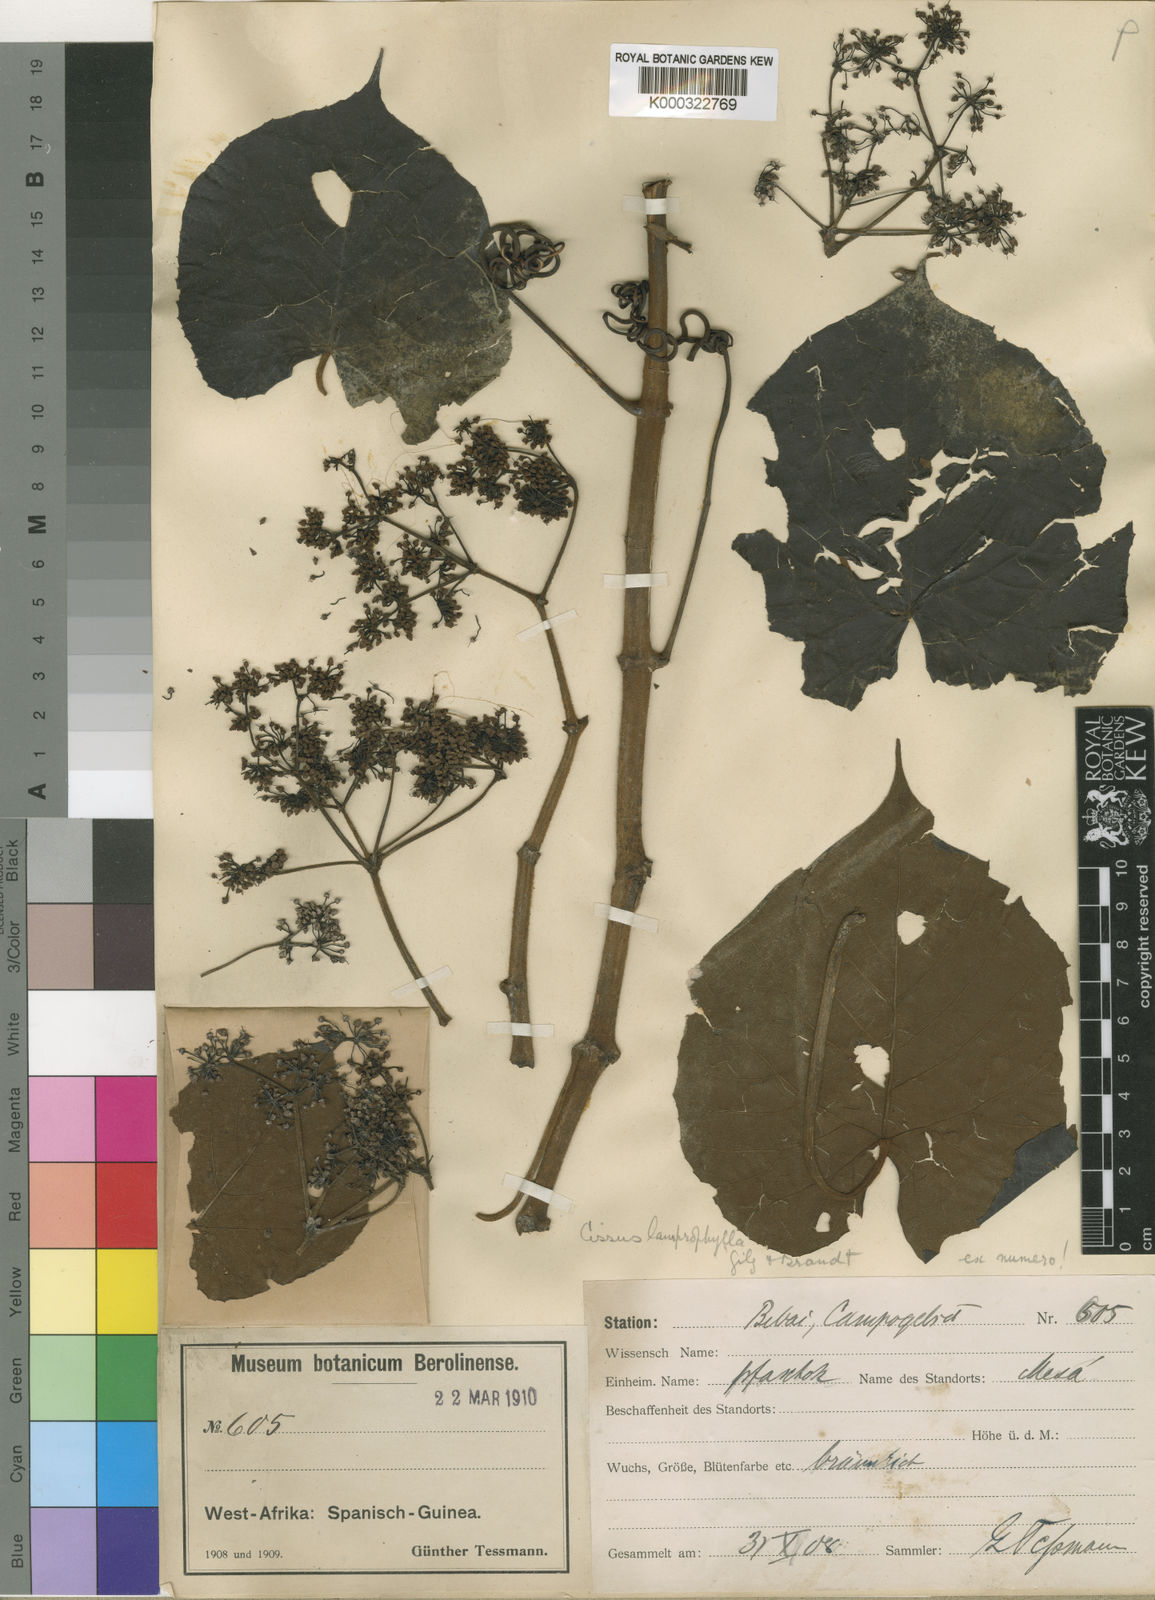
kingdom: Plantae
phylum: Tracheophyta
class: Magnoliopsida
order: Vitales
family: Vitaceae
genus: Cissus
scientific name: Cissus lamprophylla
